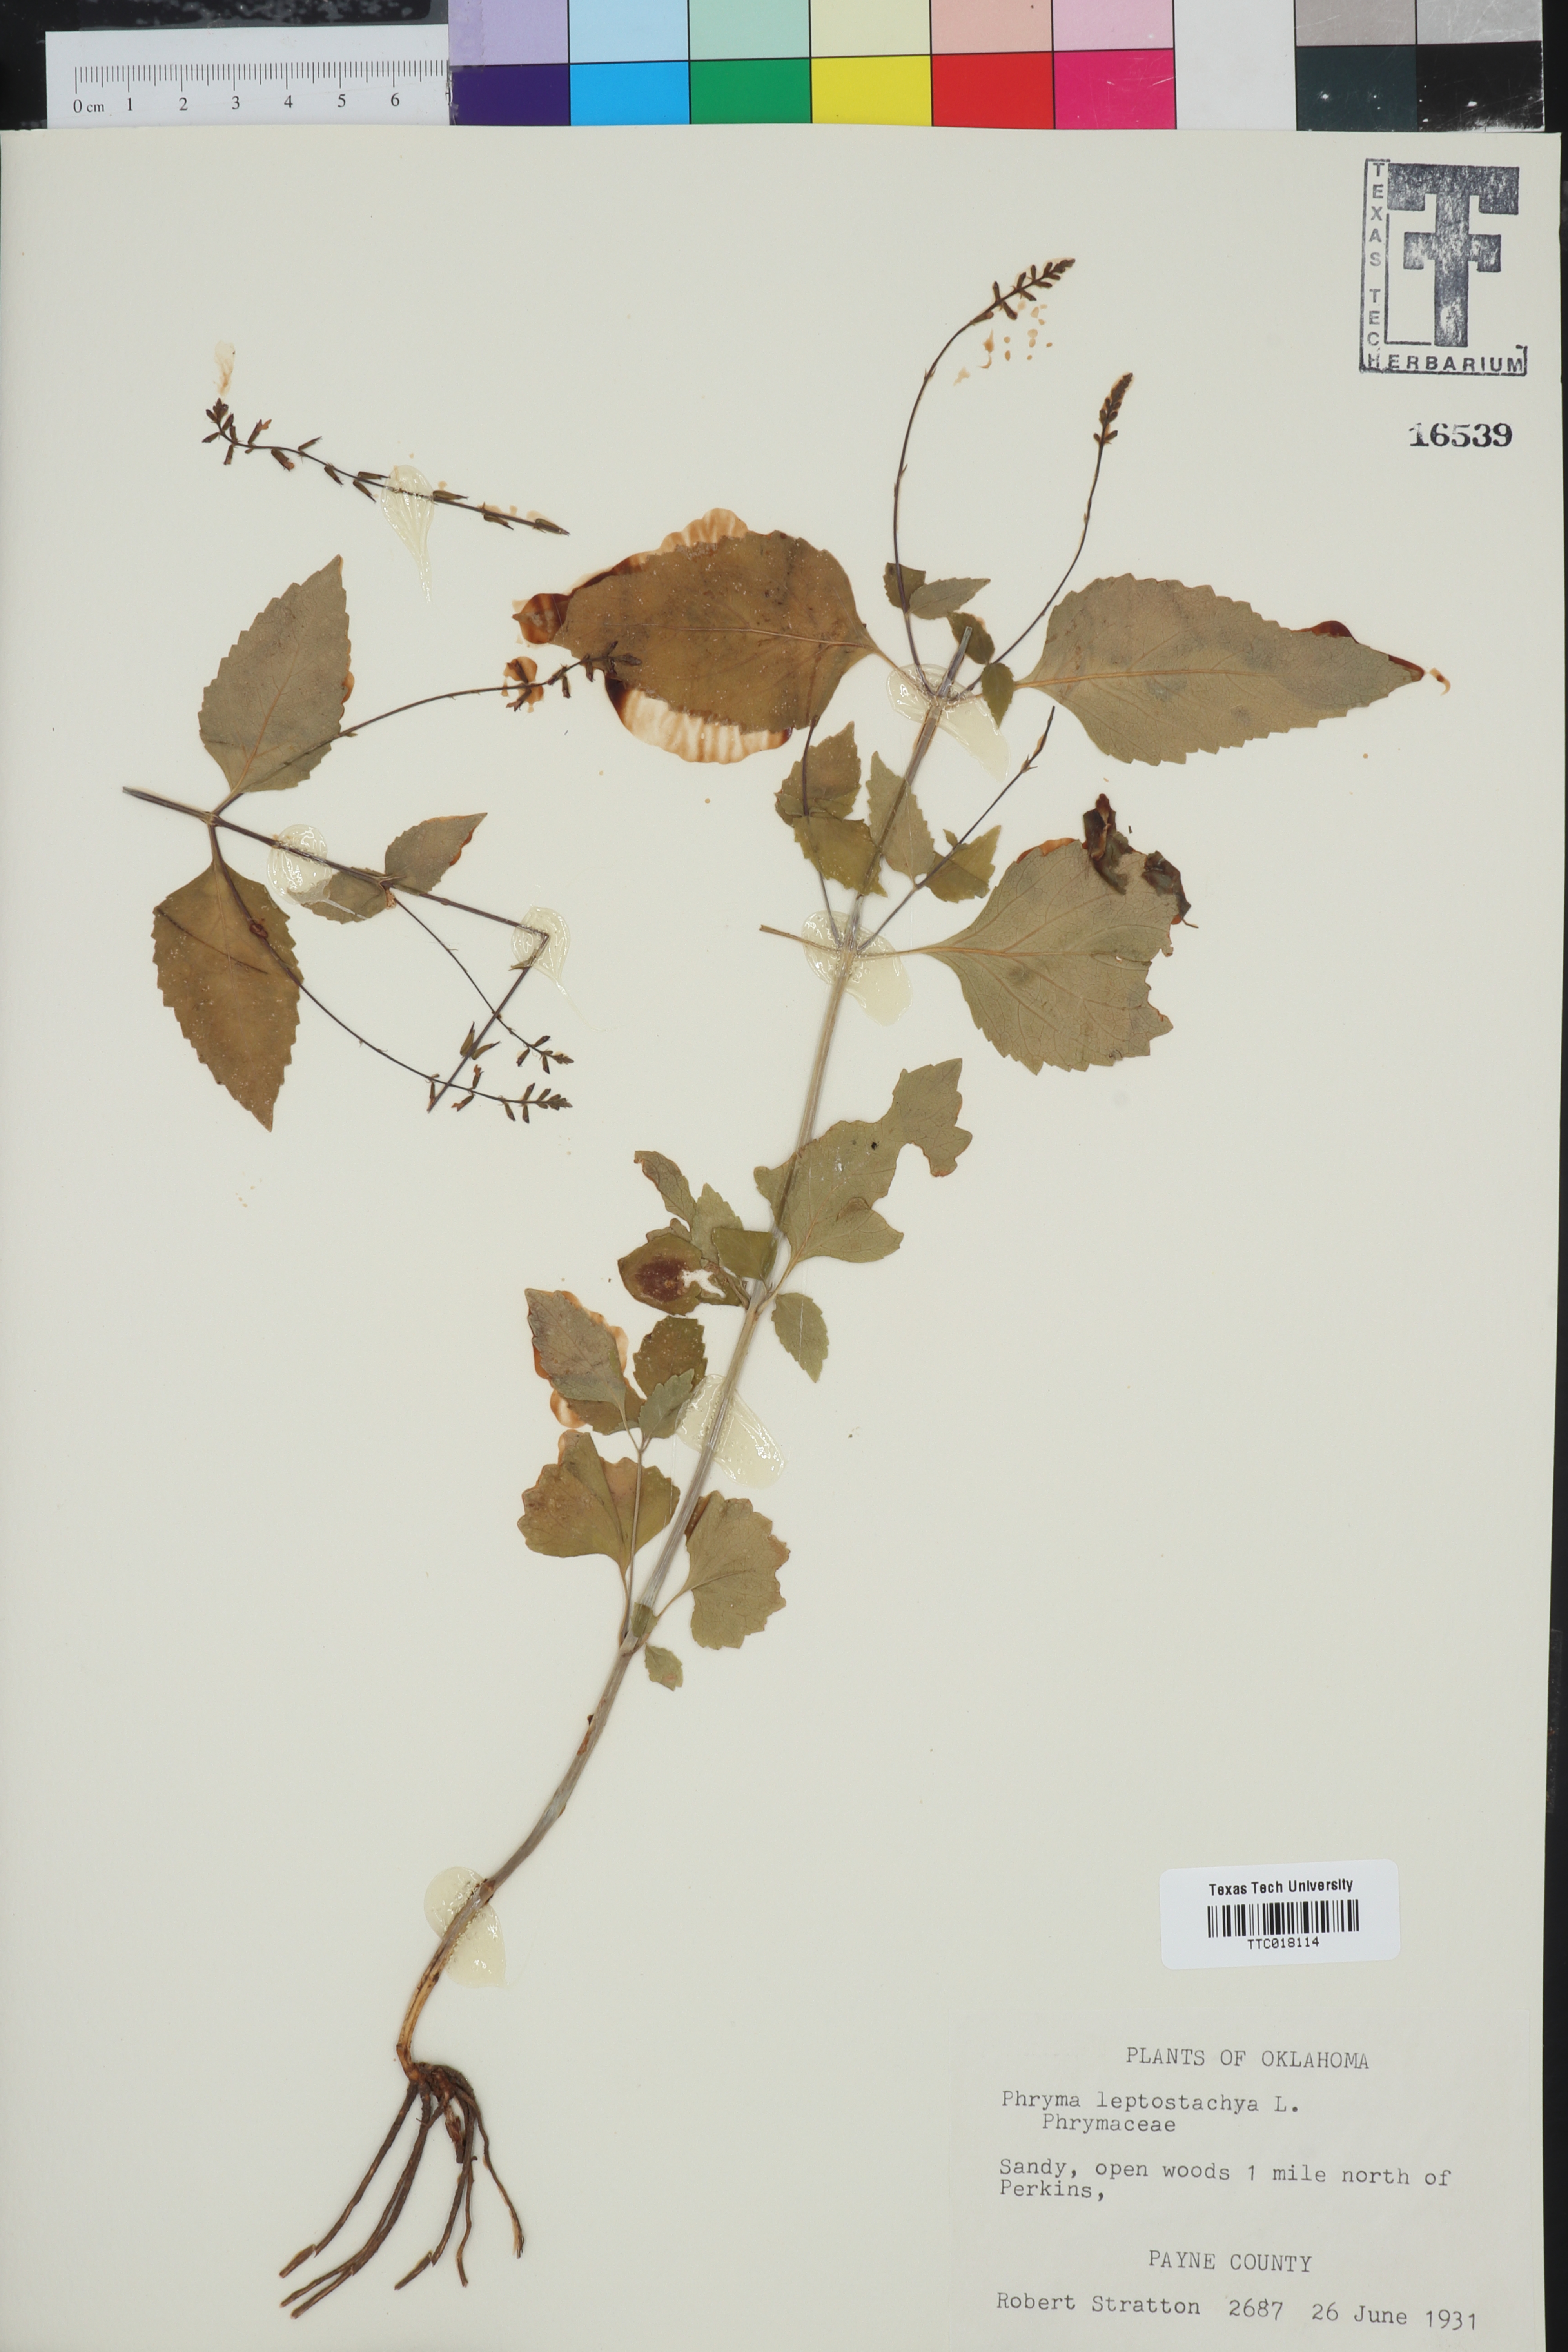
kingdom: Plantae
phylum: Tracheophyta
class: Magnoliopsida
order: Lamiales
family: Phrymaceae
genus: Phryma
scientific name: Phryma leptostachya
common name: American lopseed
